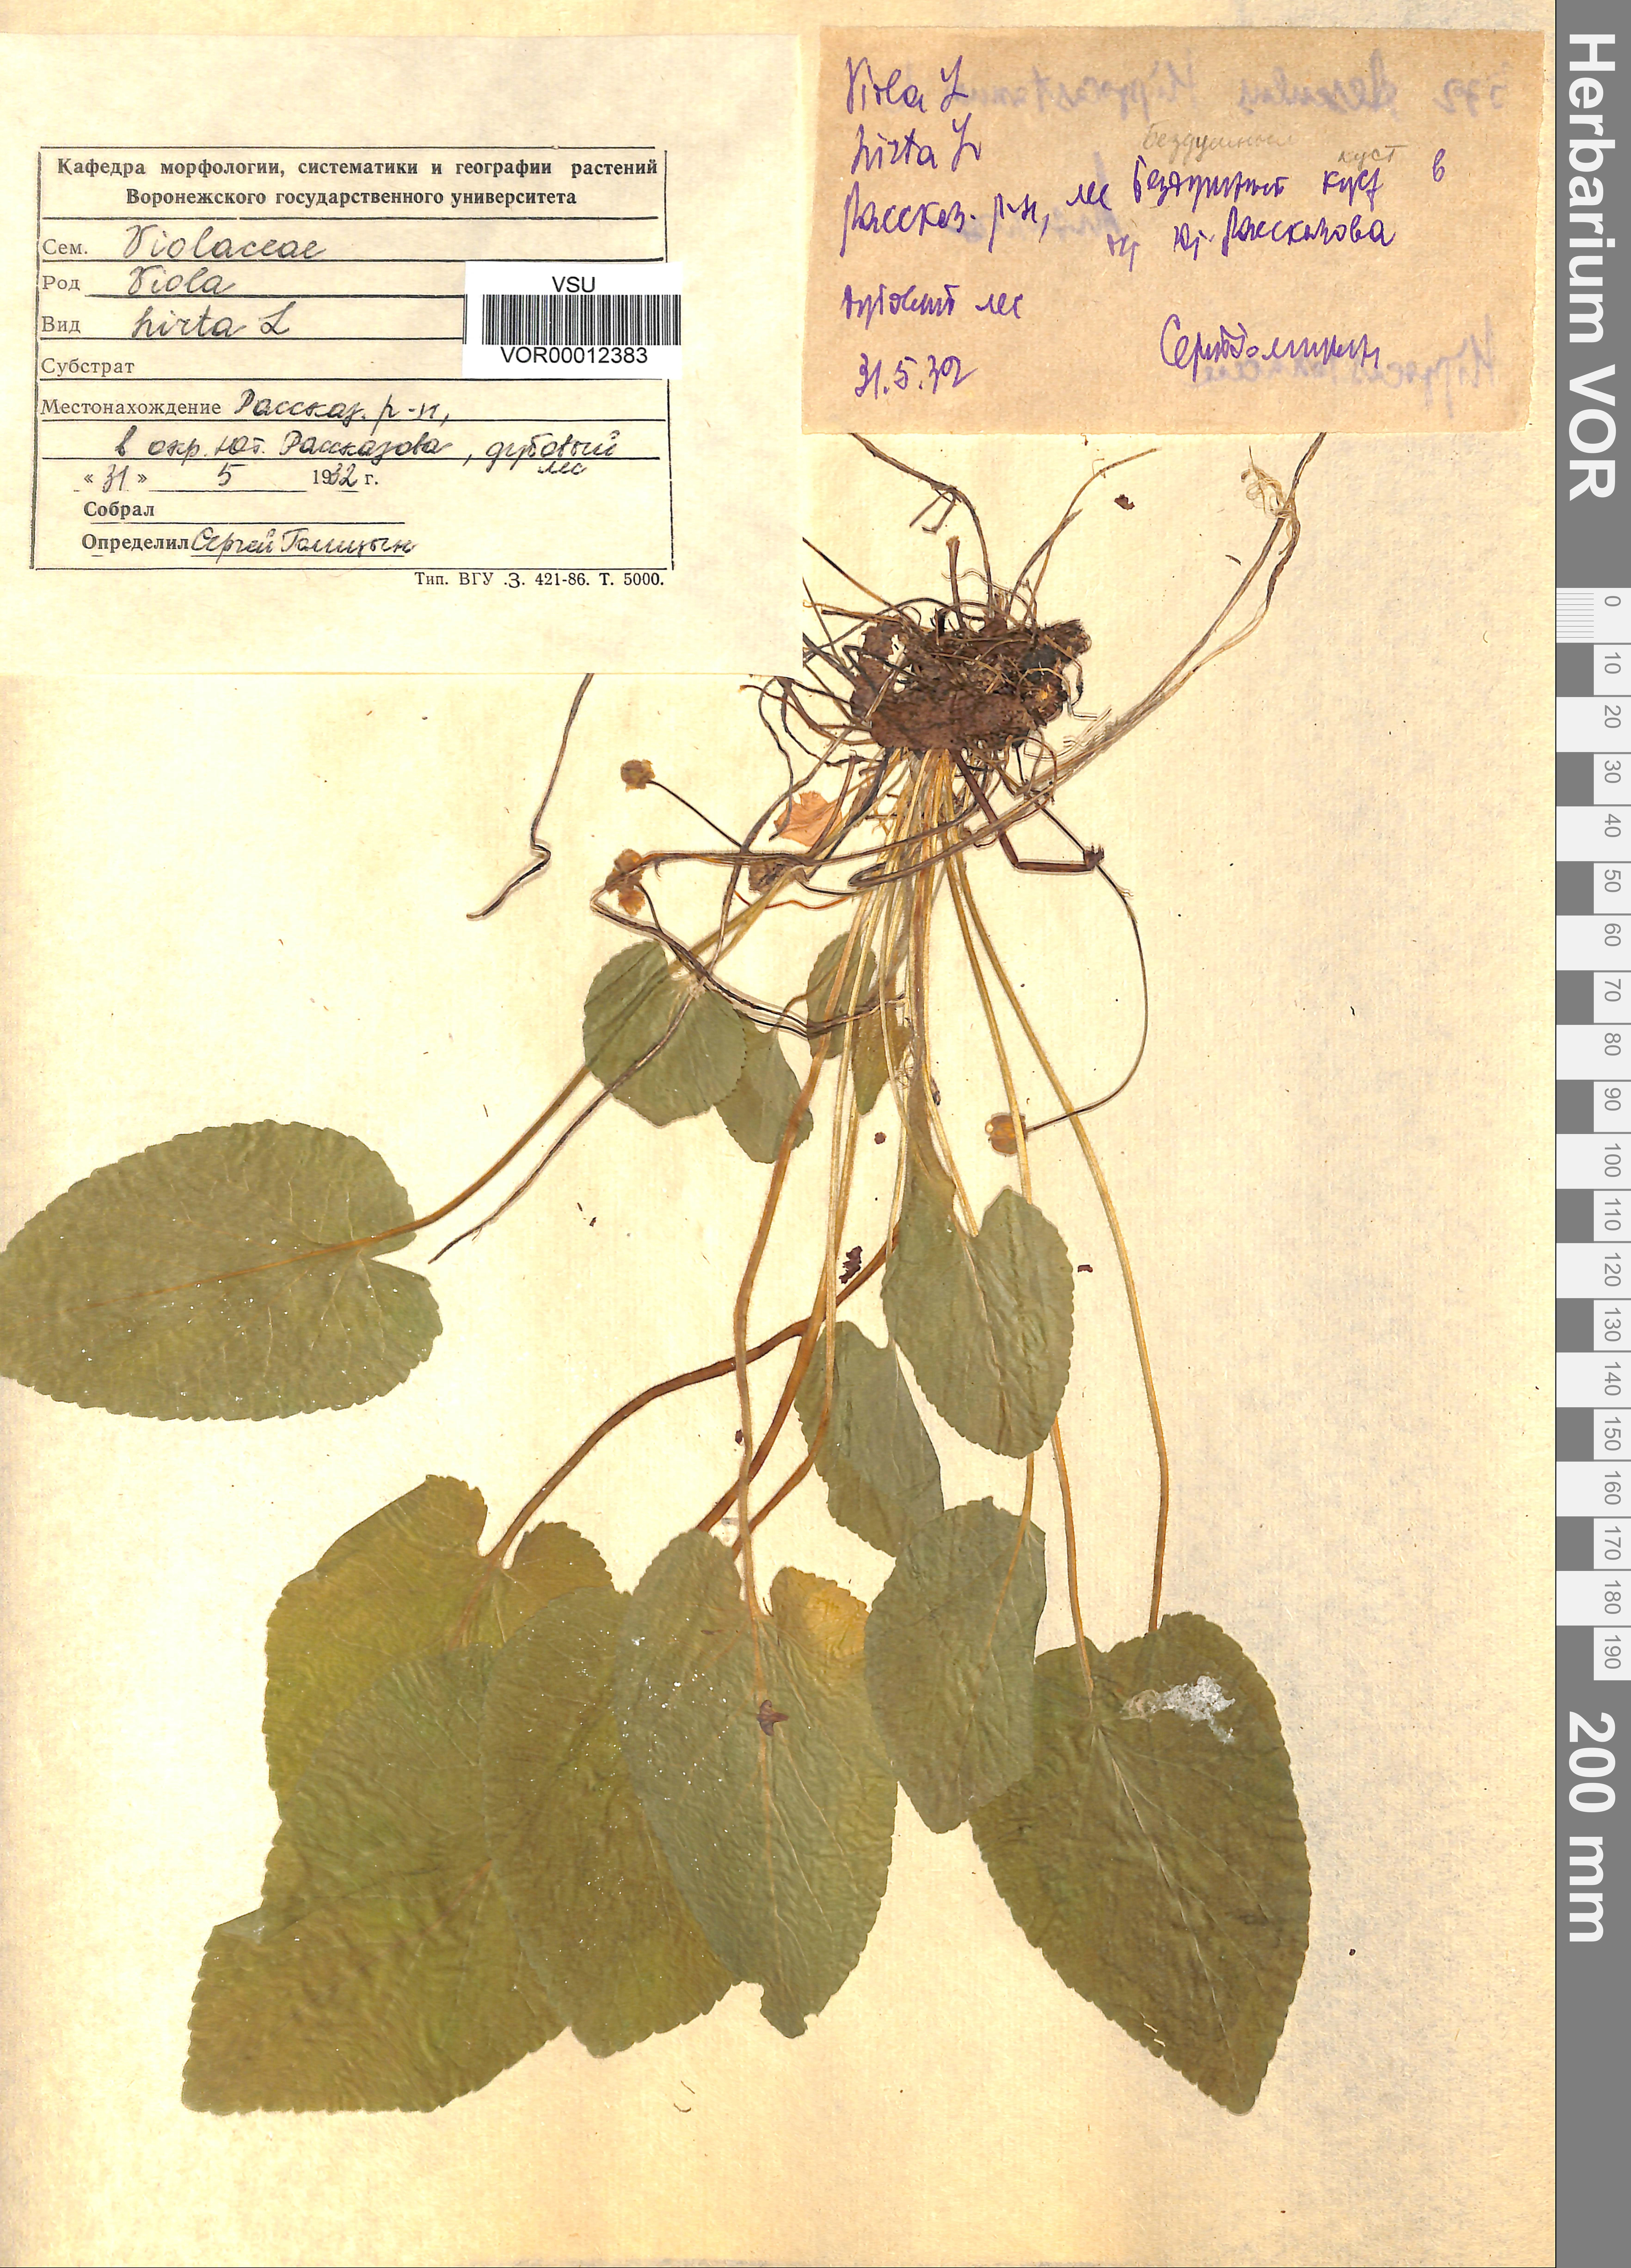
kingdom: Plantae
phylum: Tracheophyta
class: Magnoliopsida
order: Malpighiales
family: Violaceae
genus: Viola
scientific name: Viola hirta
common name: Hairy violet
